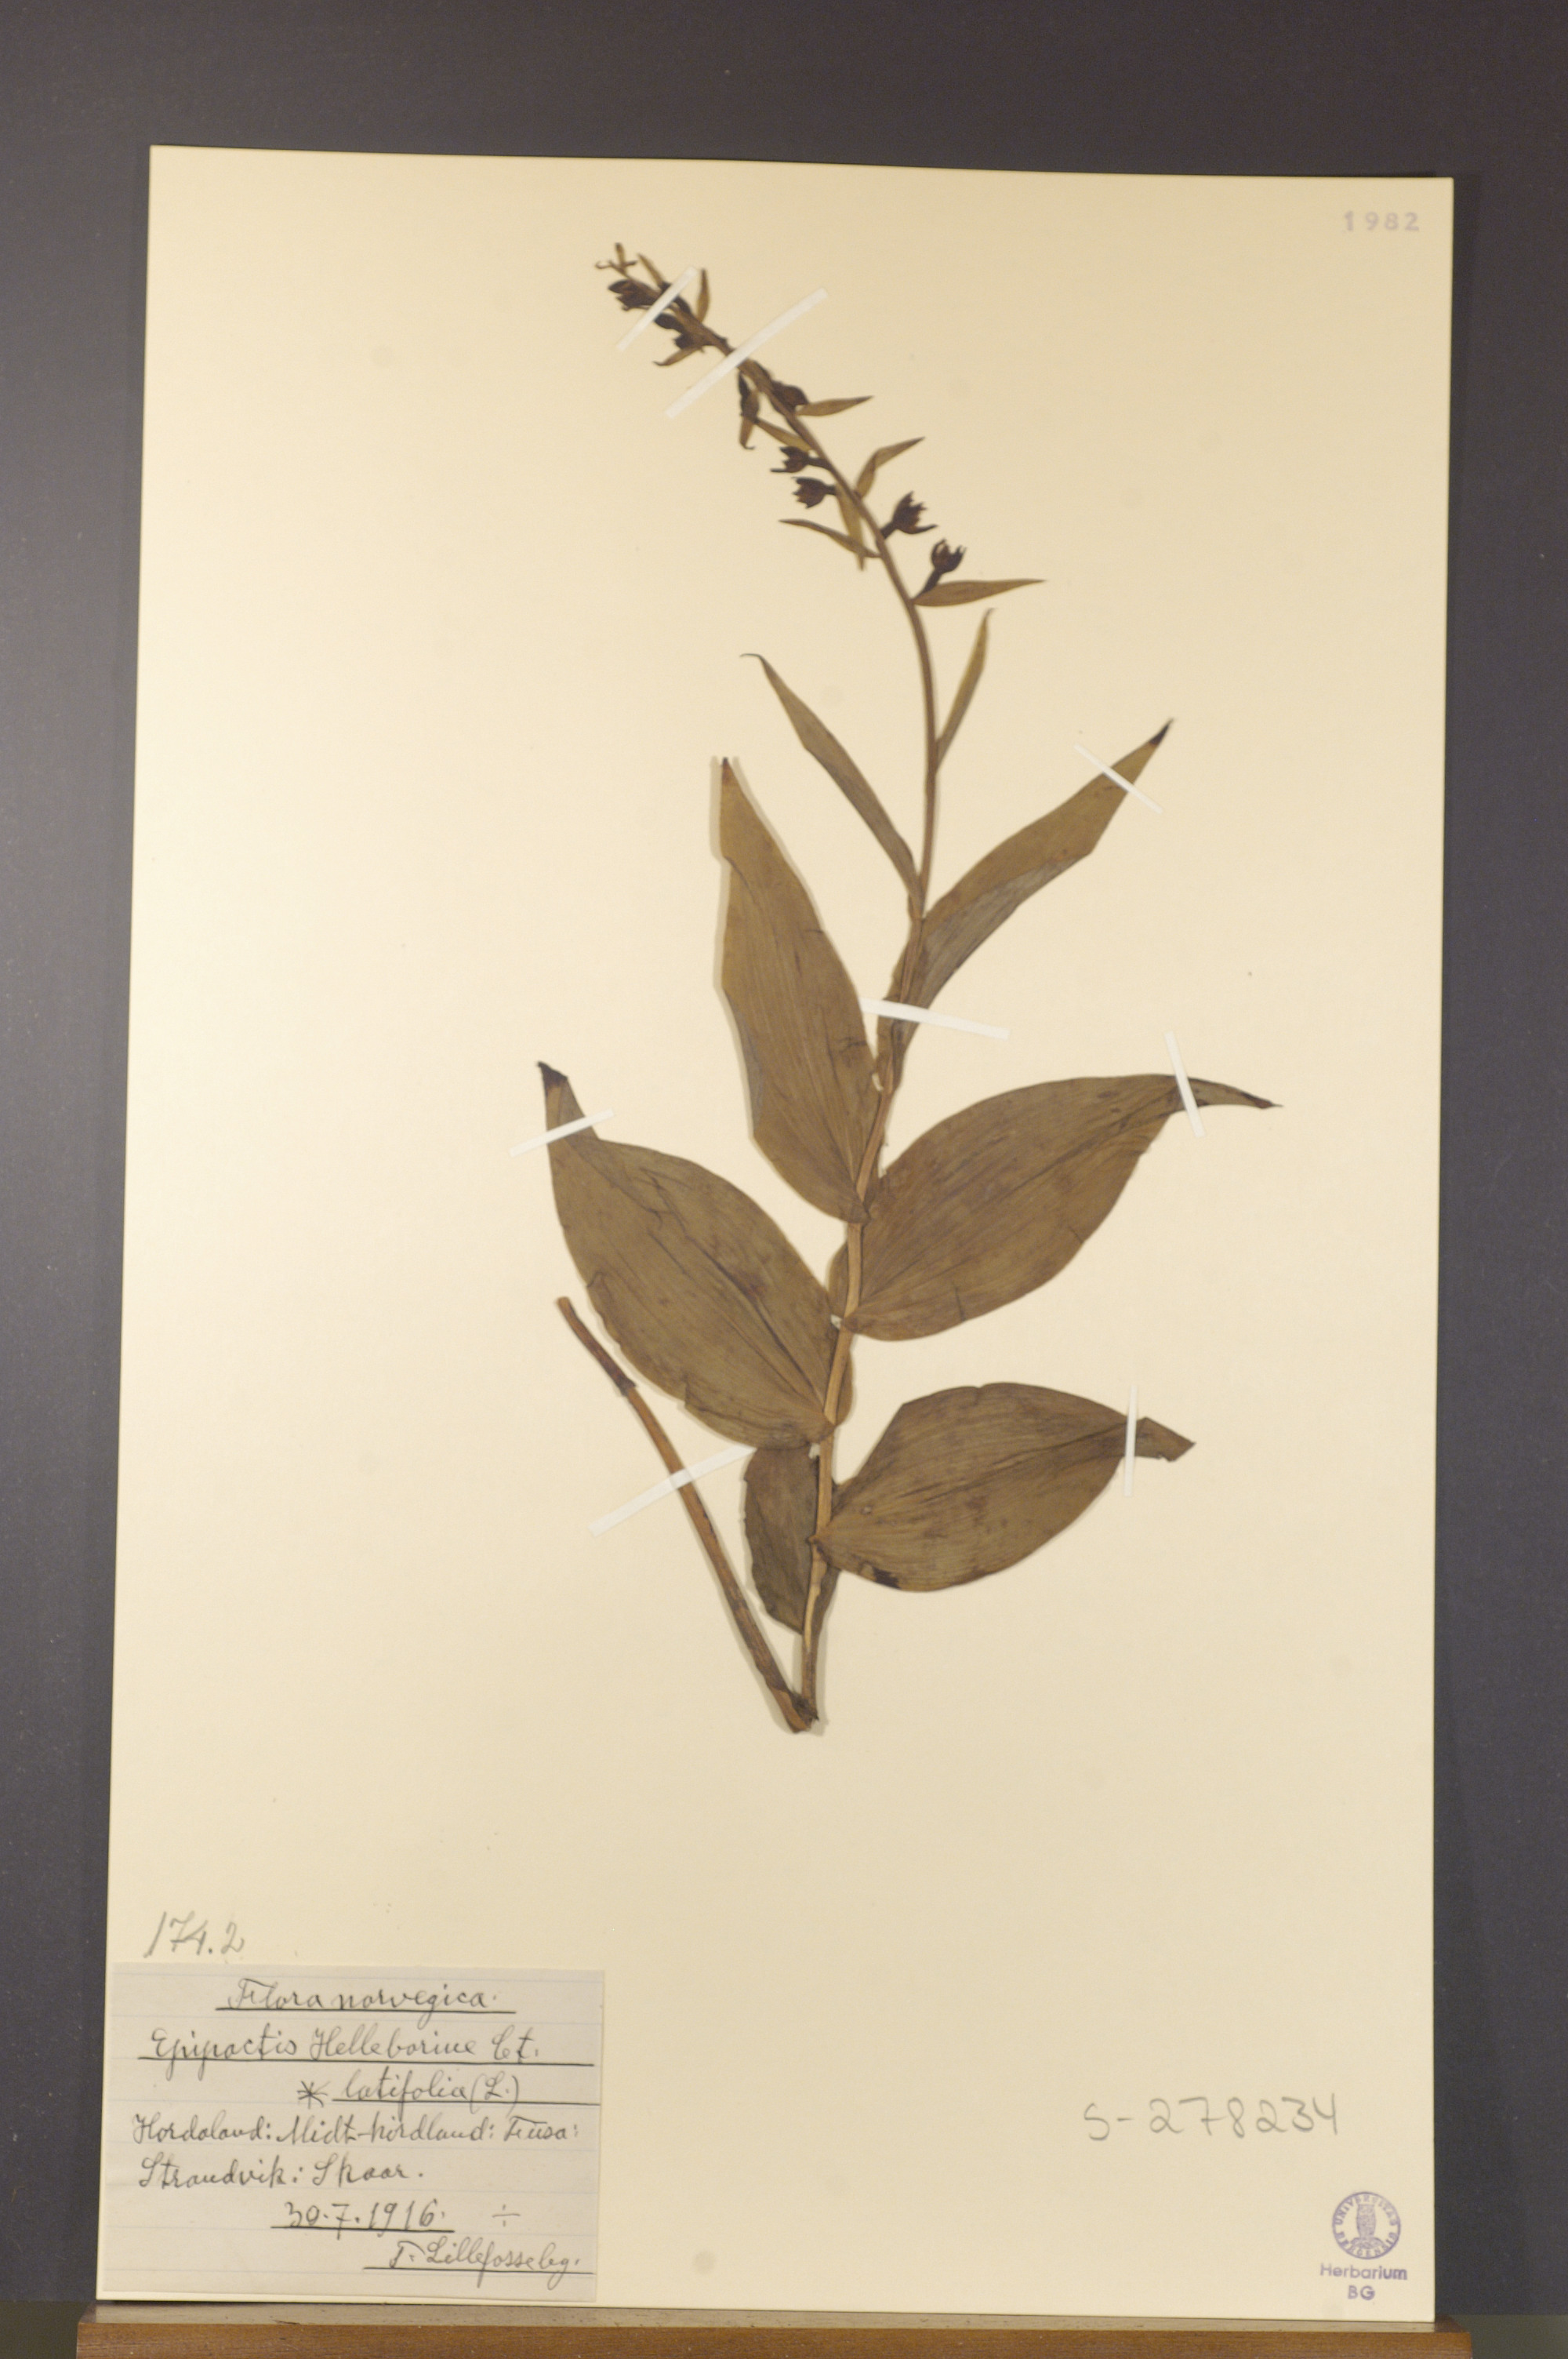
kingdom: Plantae
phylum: Tracheophyta
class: Liliopsida
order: Asparagales
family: Orchidaceae
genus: Epipactis
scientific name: Epipactis helleborine
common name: Broad-leaved helleborine
